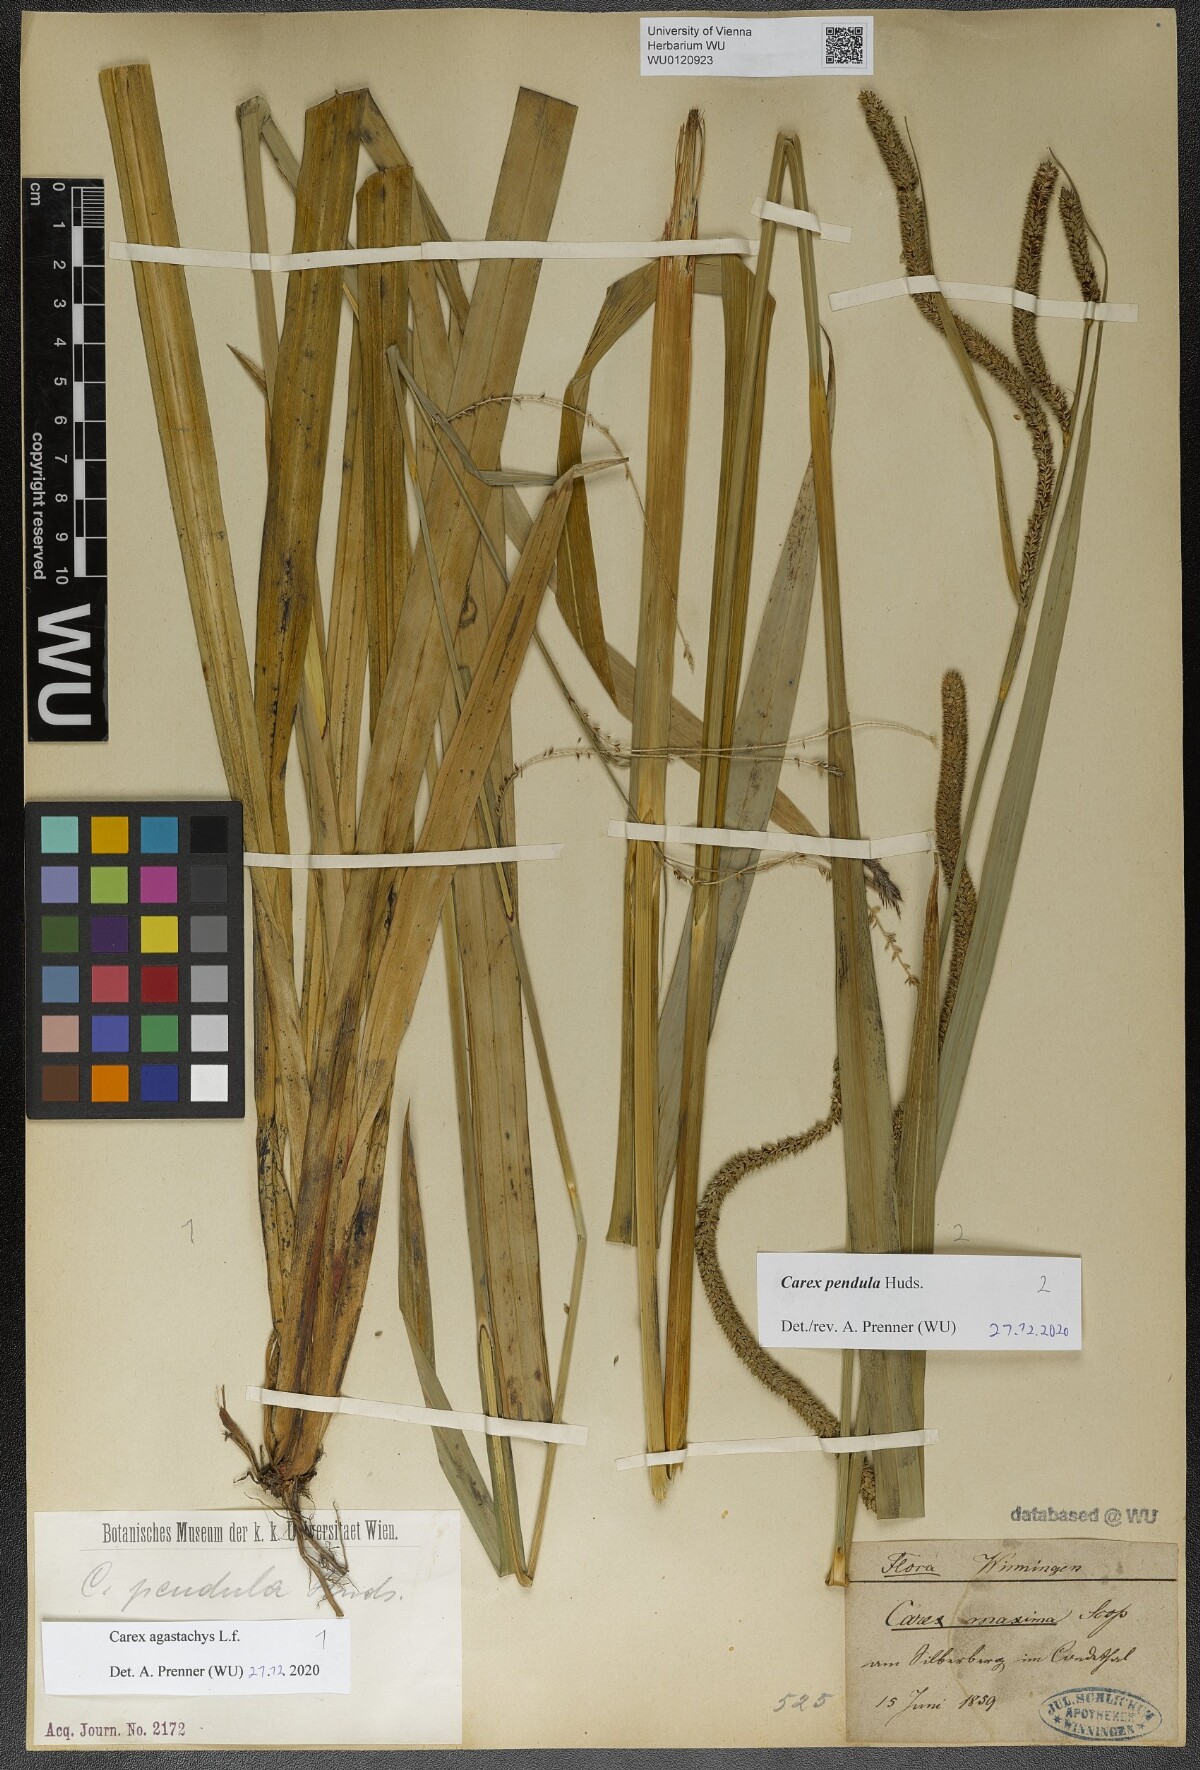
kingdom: Plantae
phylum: Tracheophyta
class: Liliopsida
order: Poales
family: Cyperaceae
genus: Carex
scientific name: Carex agastachys
